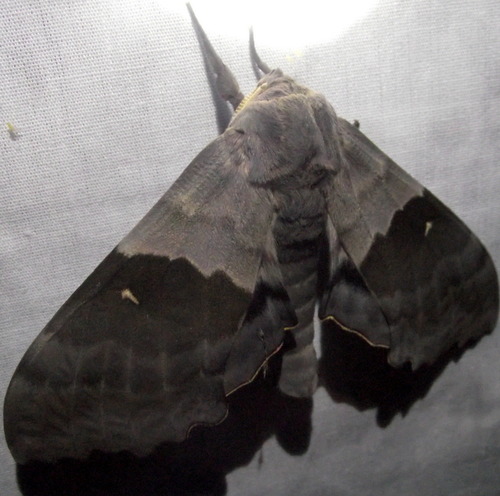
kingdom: Animalia
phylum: Arthropoda
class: Insecta
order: Lepidoptera
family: Sphingidae
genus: Pachysphinx
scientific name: Pachysphinx modesta
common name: Big poplar sphinx
